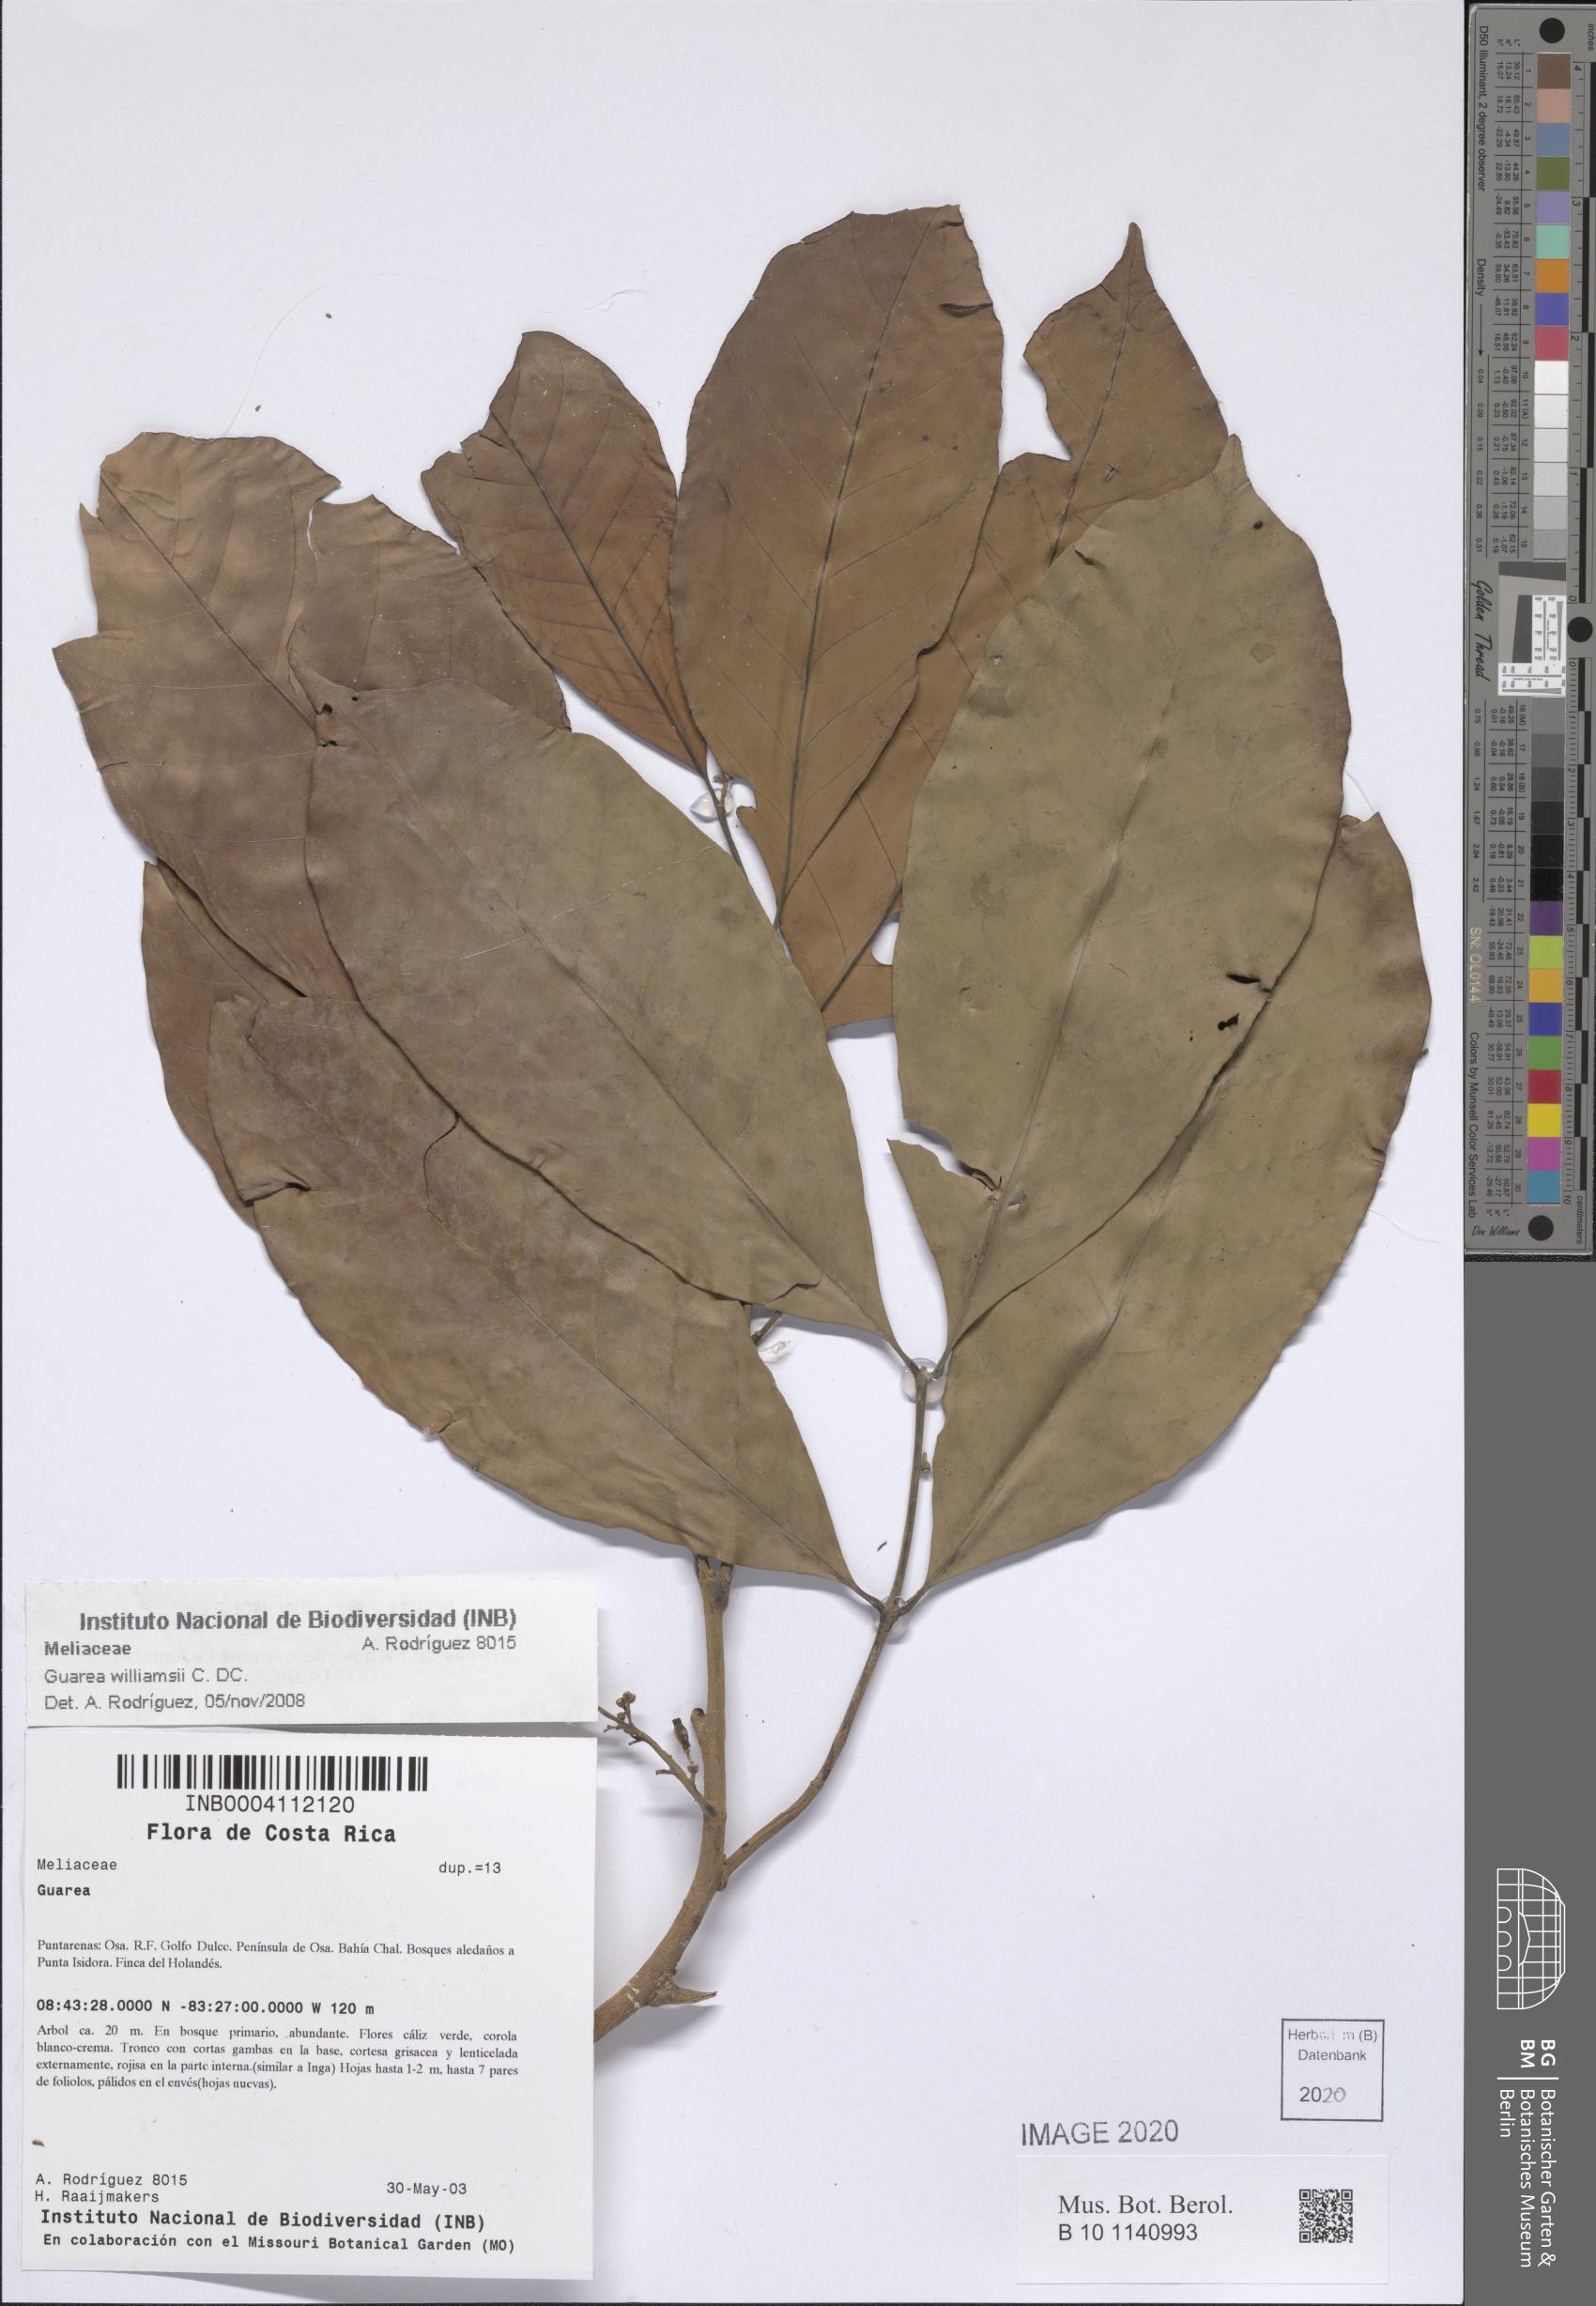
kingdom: Plantae
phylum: Tracheophyta
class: Magnoliopsida
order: Sapindales
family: Meliaceae
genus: Guarea
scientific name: Guarea kunthiana
